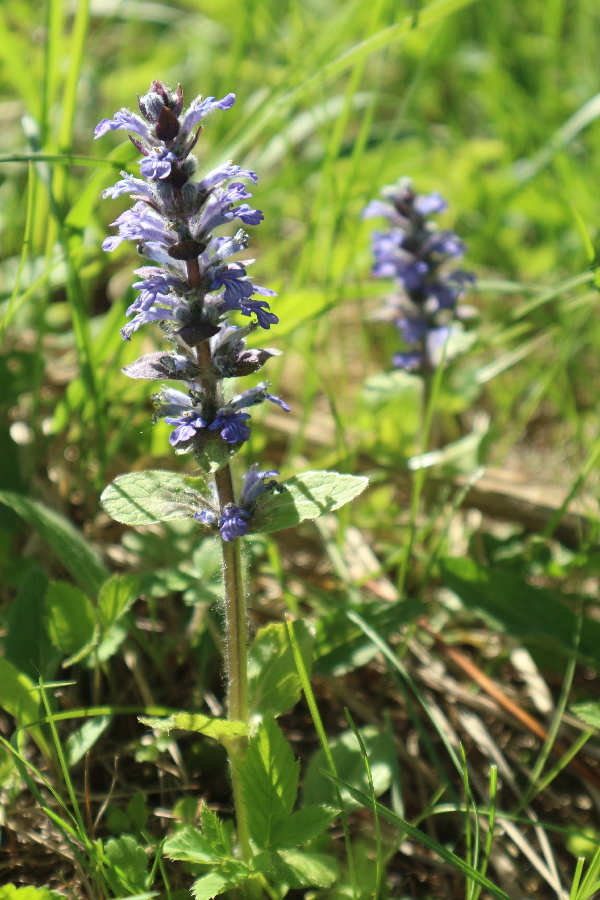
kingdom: Plantae
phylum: Tracheophyta
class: Magnoliopsida
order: Lamiales
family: Lamiaceae
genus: Ajuga
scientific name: Ajuga reptans
